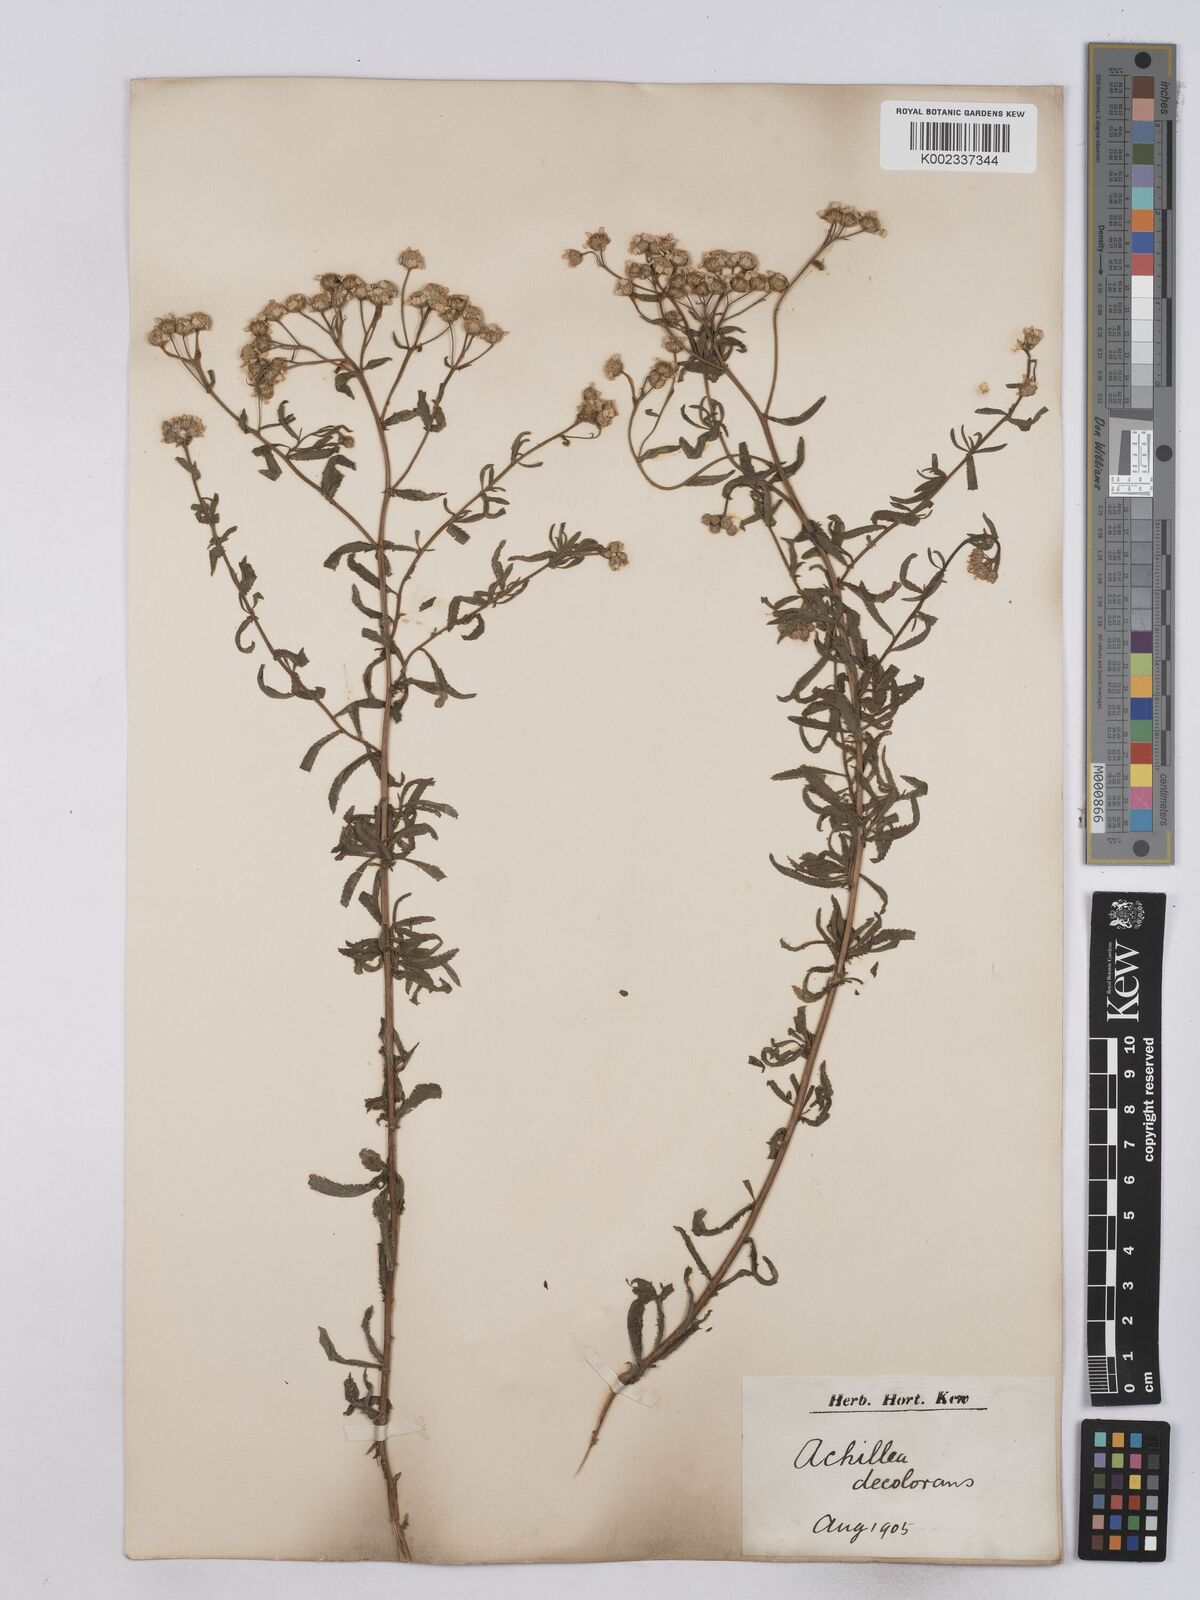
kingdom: Plantae
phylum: Tracheophyta
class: Magnoliopsida
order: Asterales
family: Asteraceae
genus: Achillea
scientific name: Achillea serrata
